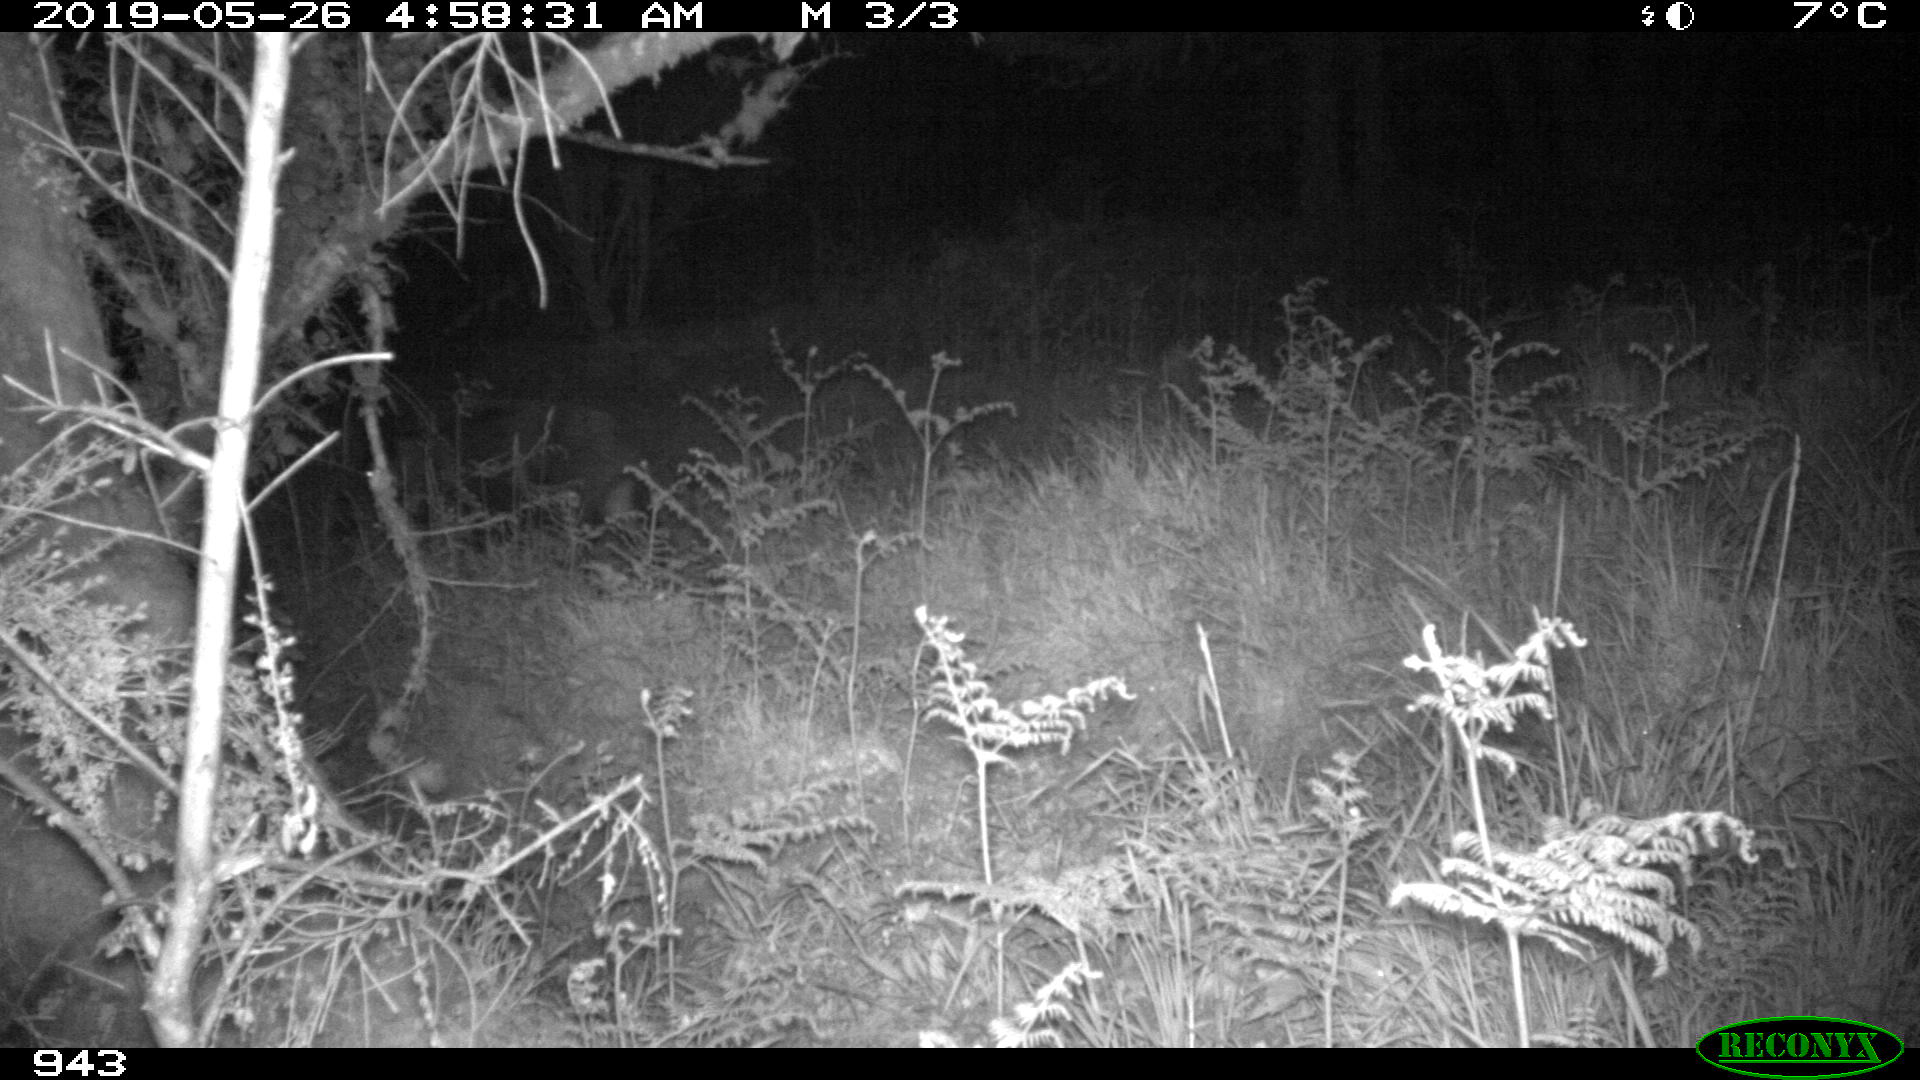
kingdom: Animalia
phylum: Chordata
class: Mammalia
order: Artiodactyla
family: Suidae
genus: Sus
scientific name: Sus scrofa
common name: Wild boar
